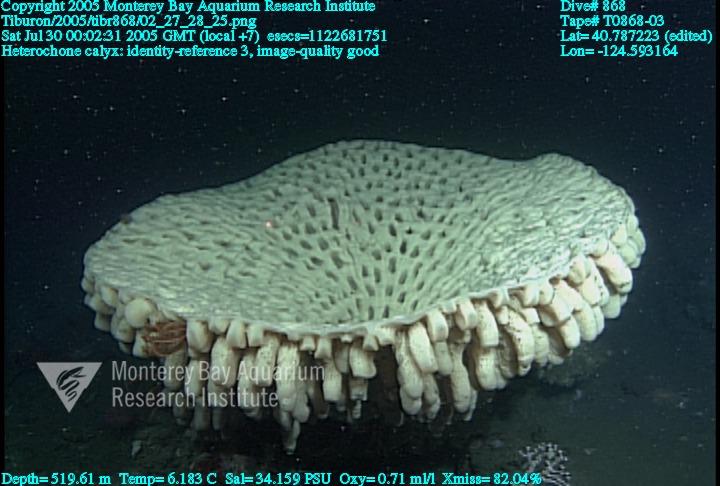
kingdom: Animalia
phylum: Porifera
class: Hexactinellida
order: Sceptrulophora
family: Aphrocallistidae
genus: Heterochone
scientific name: Heterochone calyx
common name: Fingered goblet glass sponge
